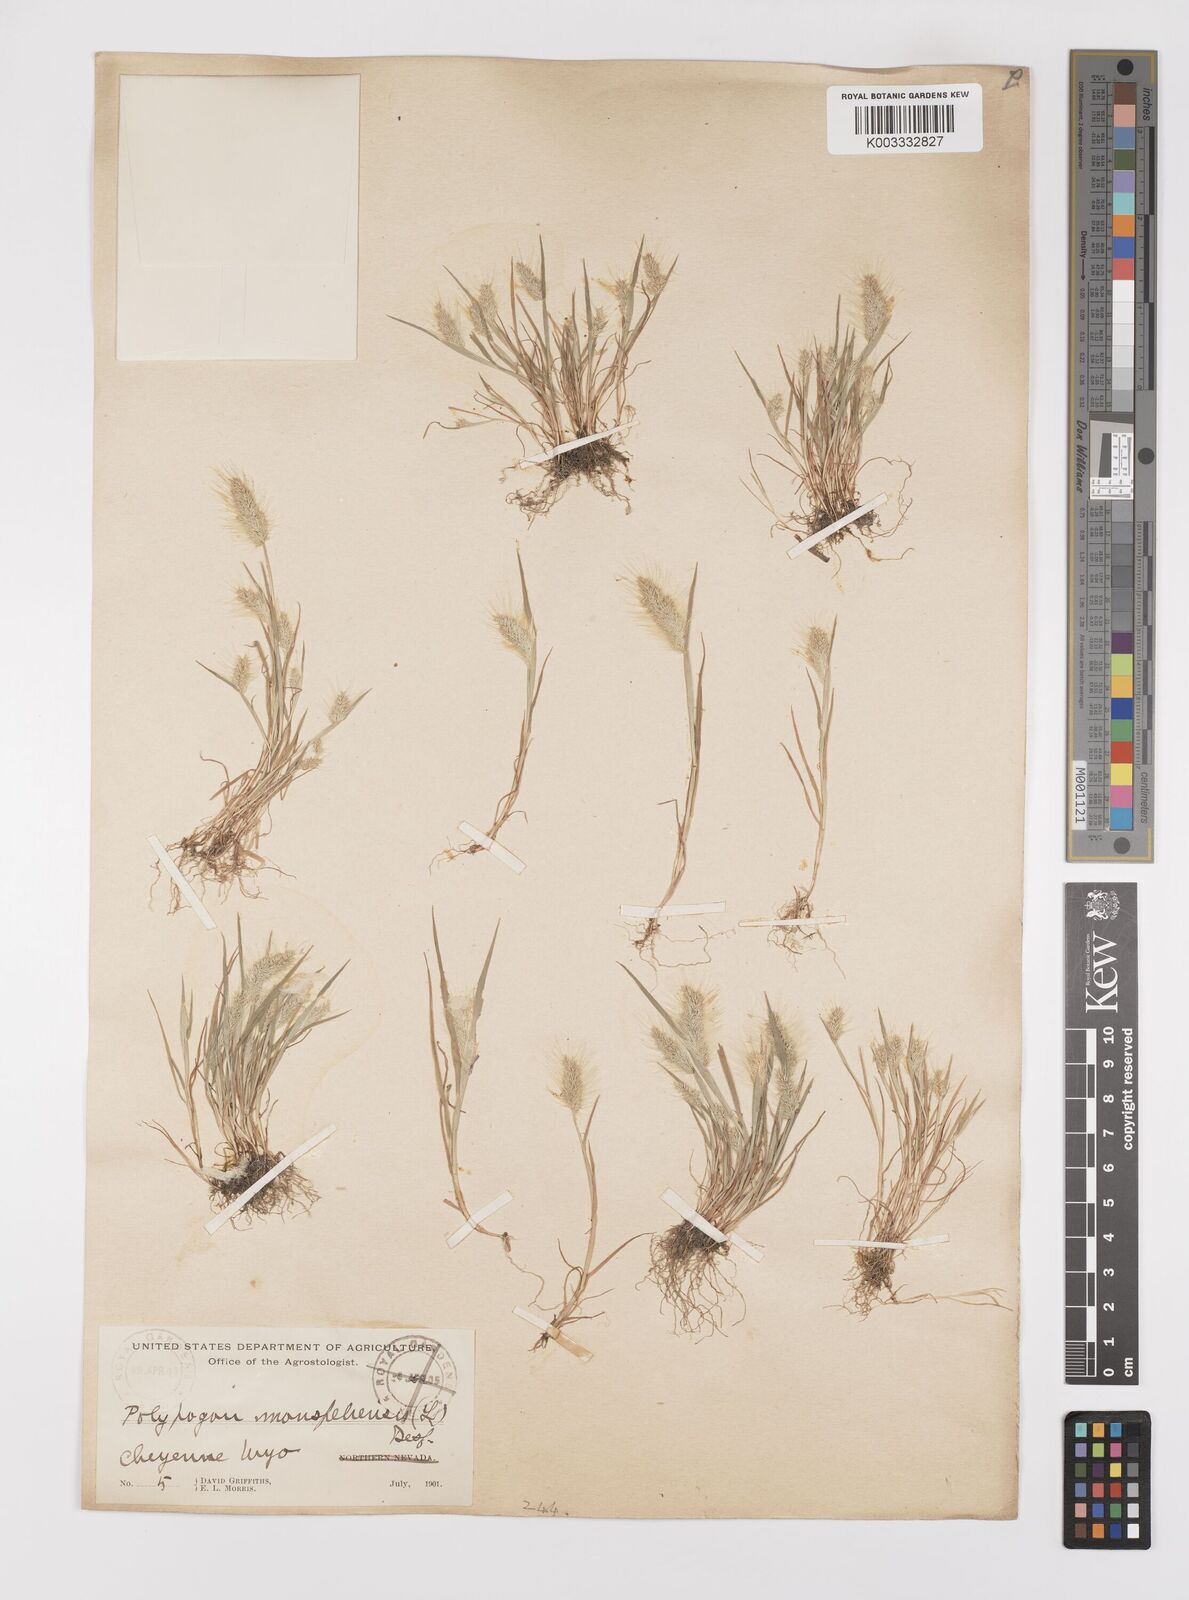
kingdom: Plantae
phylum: Tracheophyta
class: Liliopsida
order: Poales
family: Poaceae
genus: Polypogon
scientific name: Polypogon monspeliensis
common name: Annual rabbitsfoot grass
